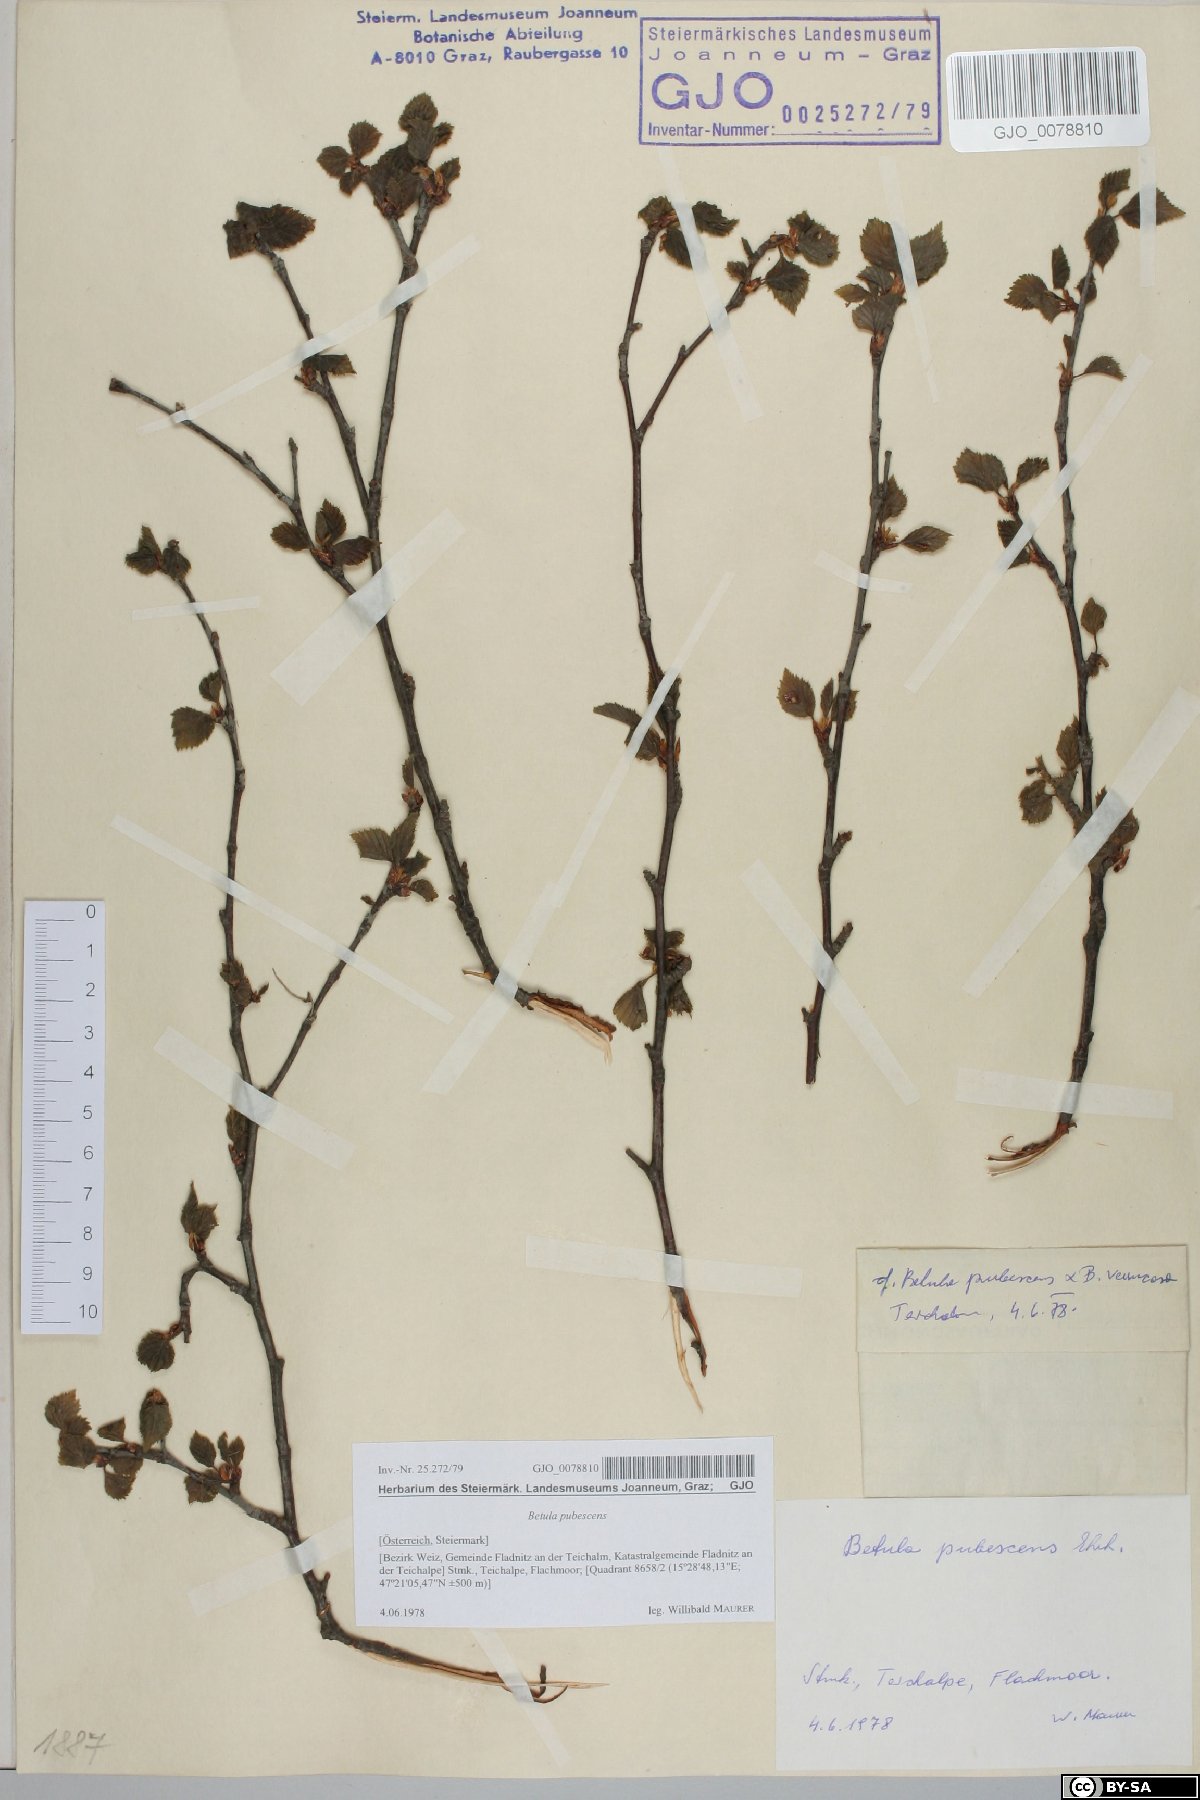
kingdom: Plantae
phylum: Tracheophyta
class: Magnoliopsida
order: Fagales
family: Betulaceae
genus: Betula
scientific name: Betula pubescens
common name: Downy birch
